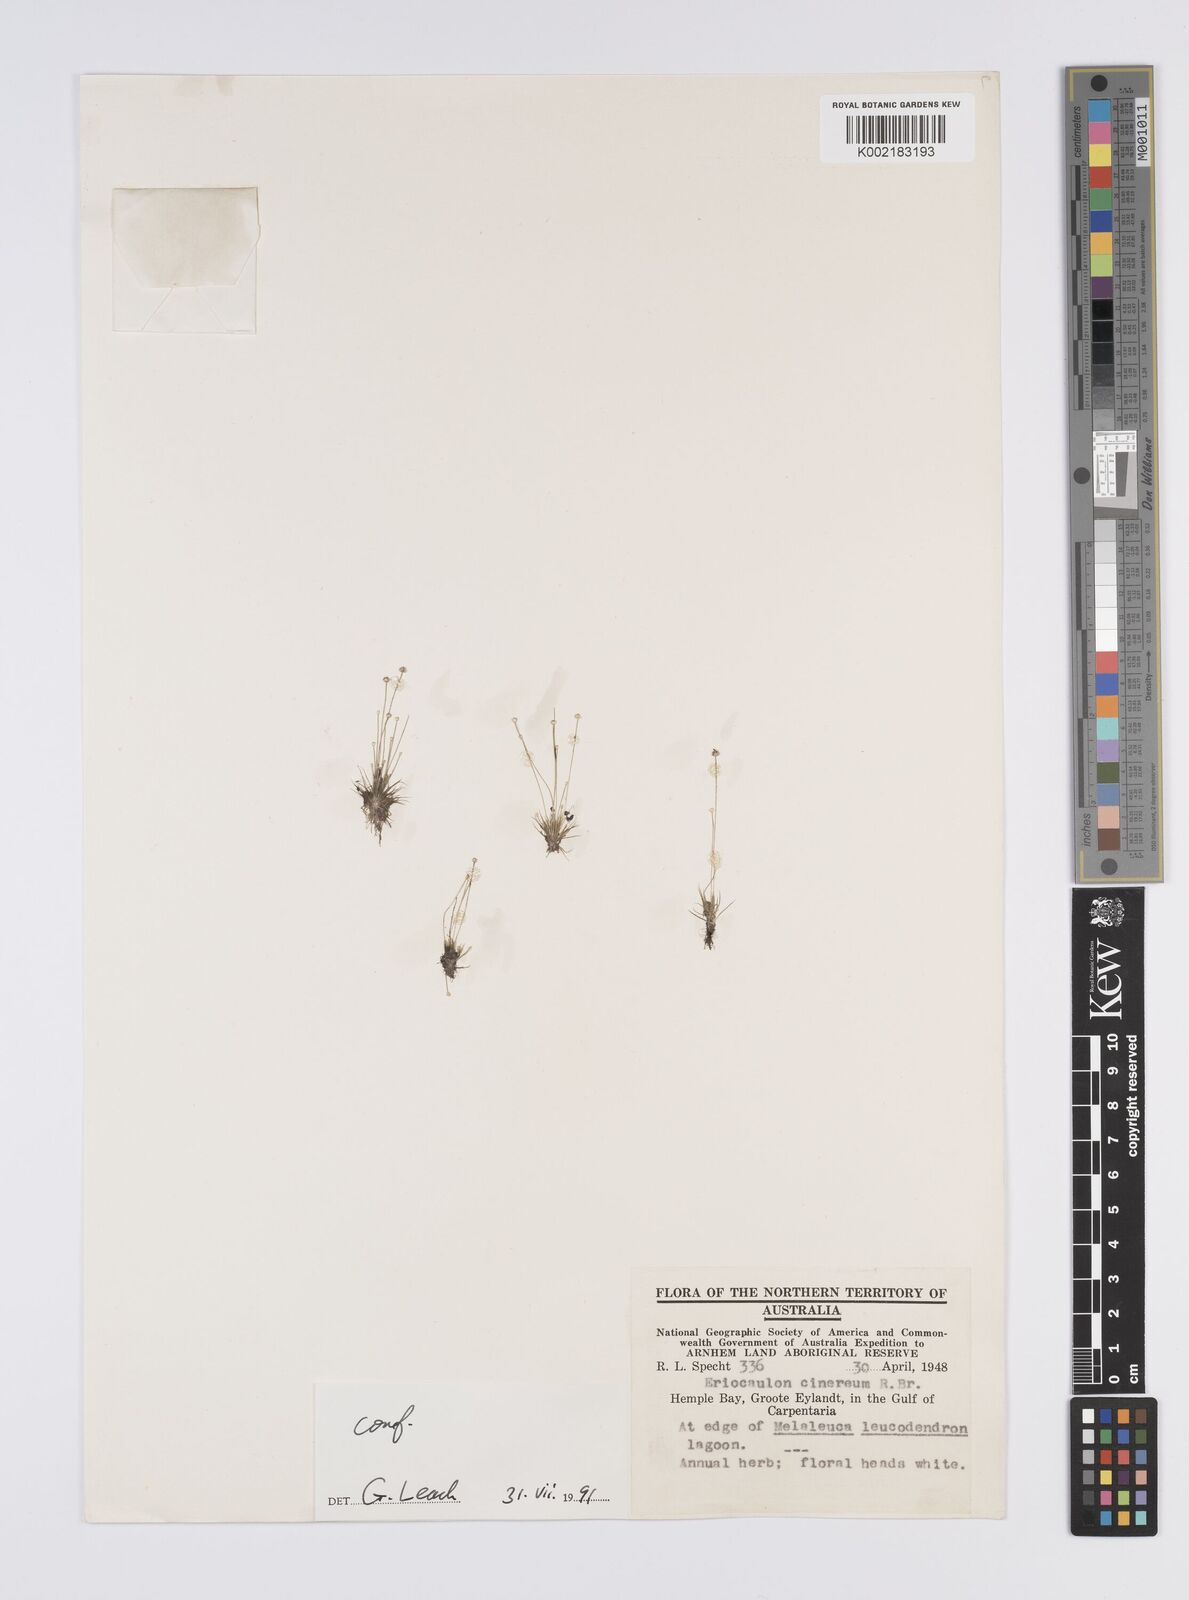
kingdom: Plantae
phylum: Tracheophyta
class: Liliopsida
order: Poales
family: Eriocaulaceae
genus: Eriocaulon
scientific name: Eriocaulon cinereum
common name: Ashy pipewort
